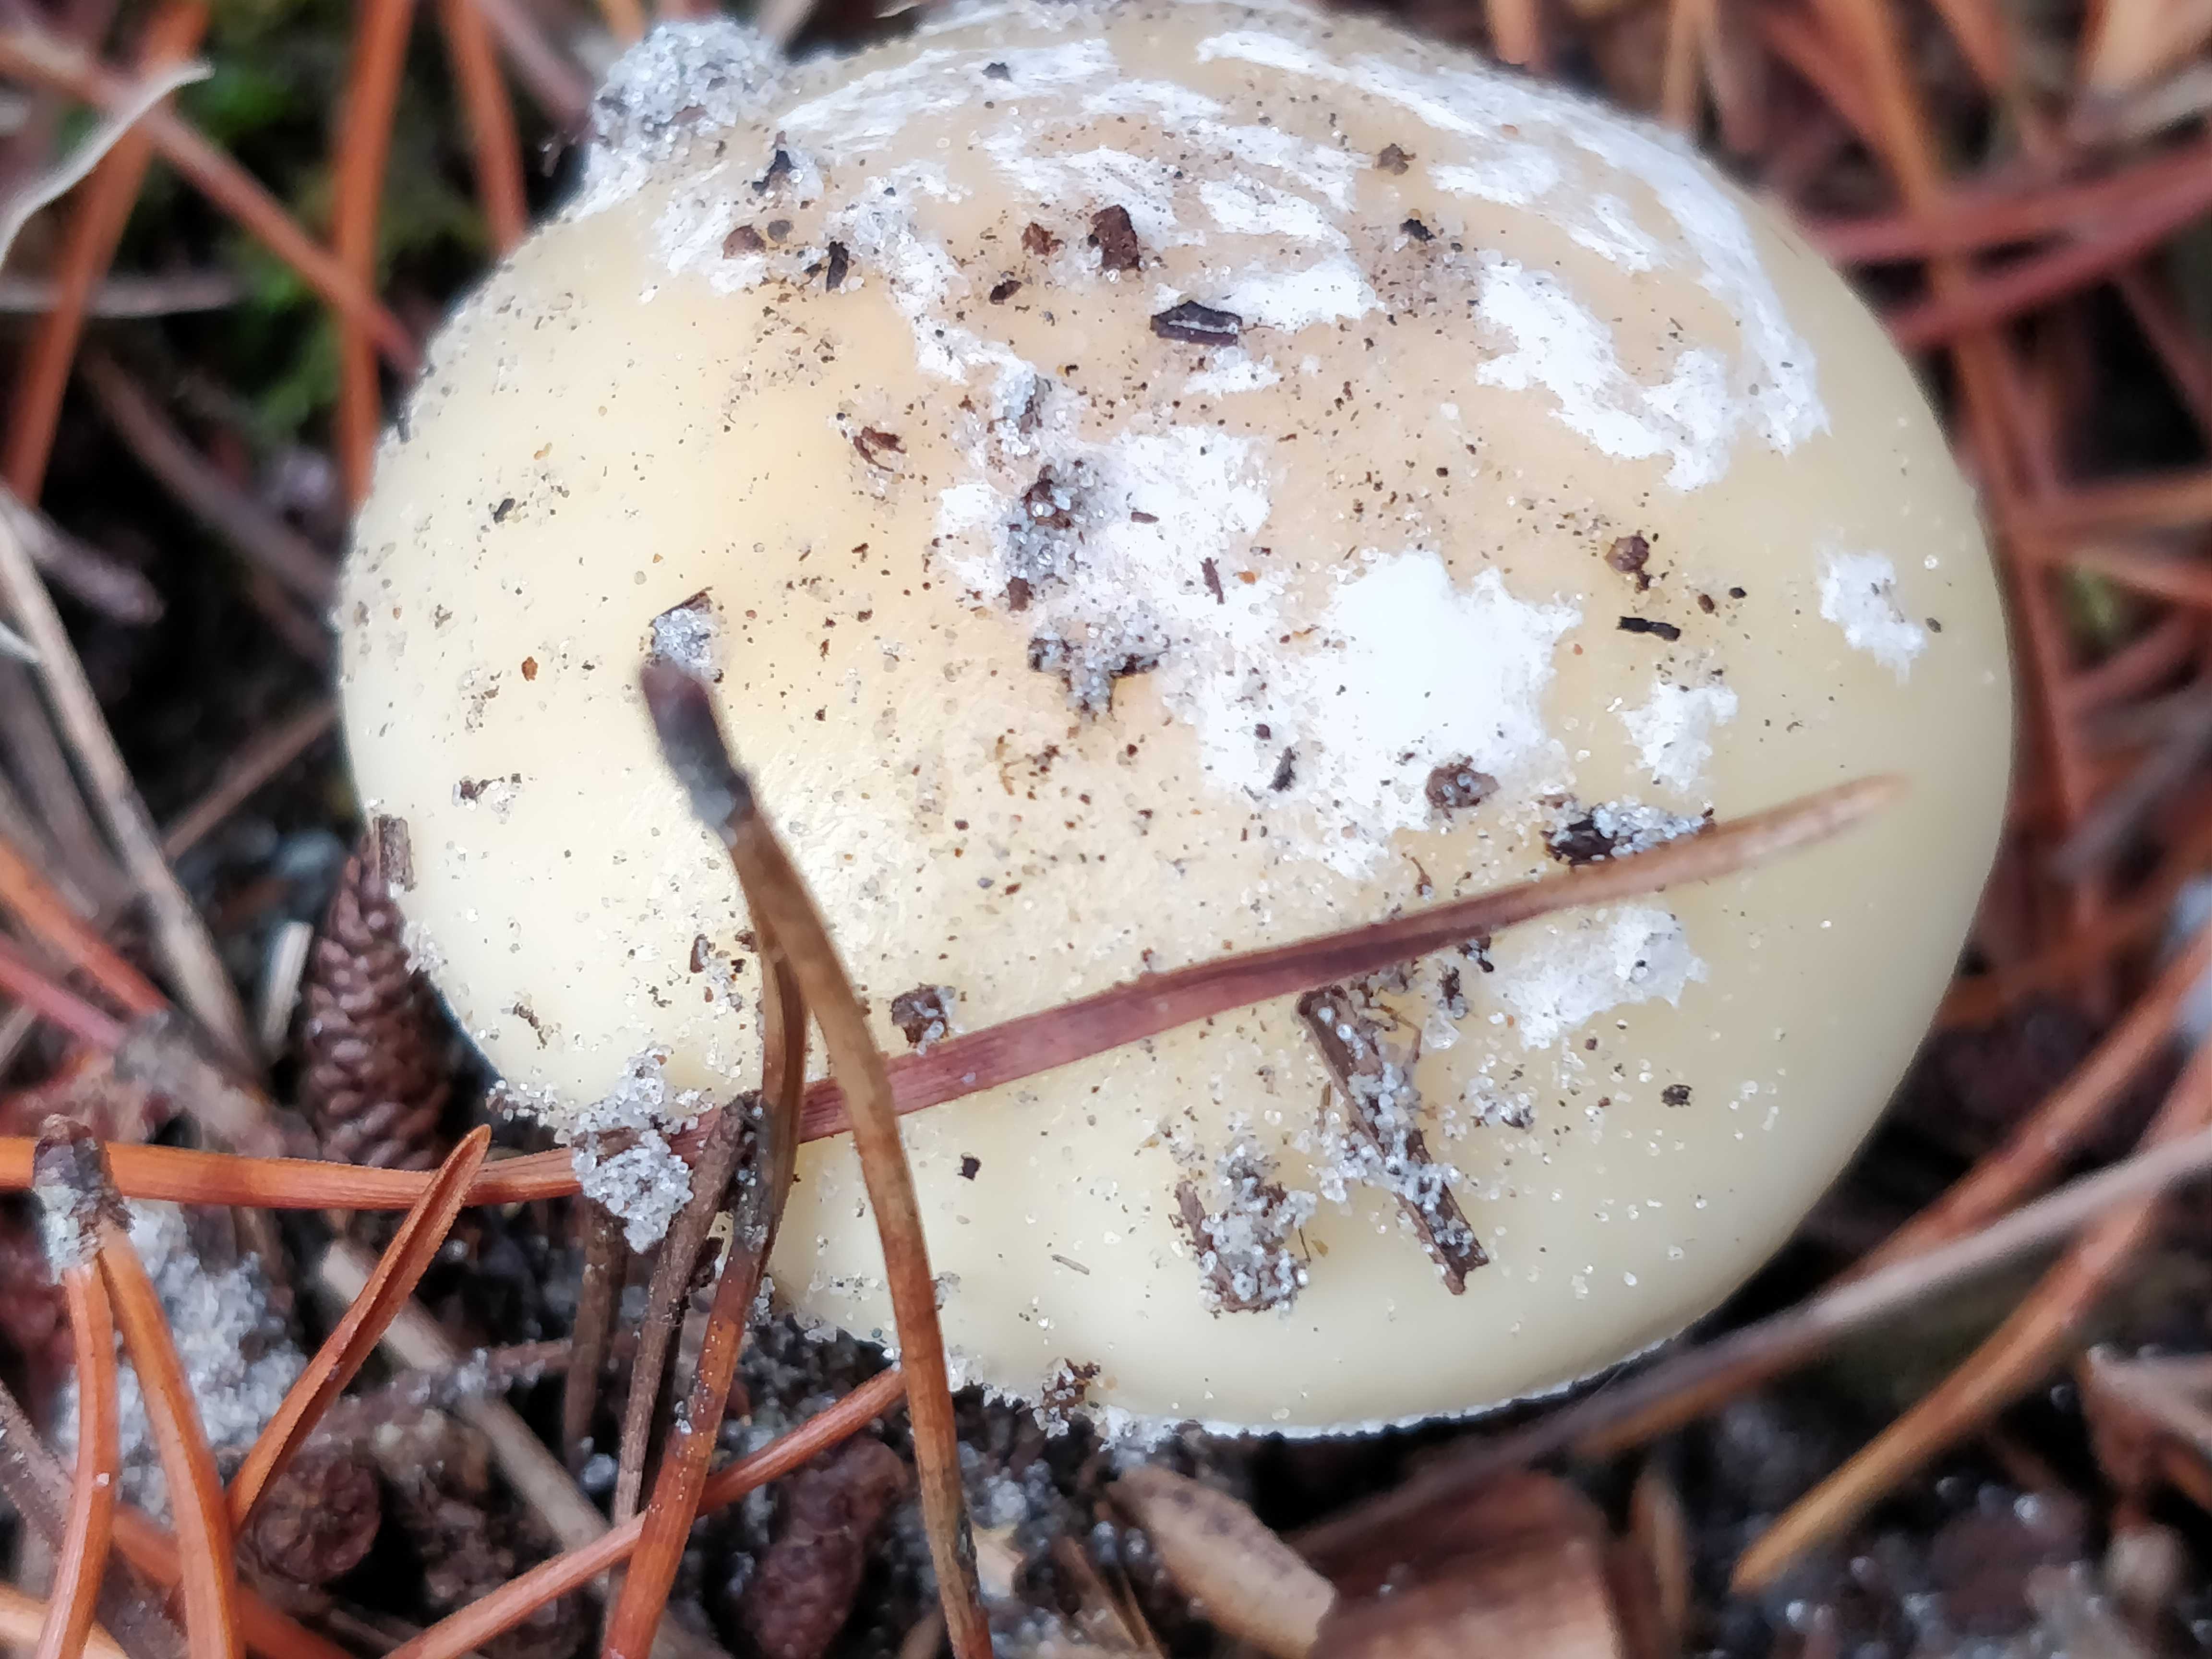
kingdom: Fungi
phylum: Basidiomycota
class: Agaricomycetes
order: Agaricales
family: Amanitaceae
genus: Amanita
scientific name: Amanita gemmata
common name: okkergul fluesvamp
